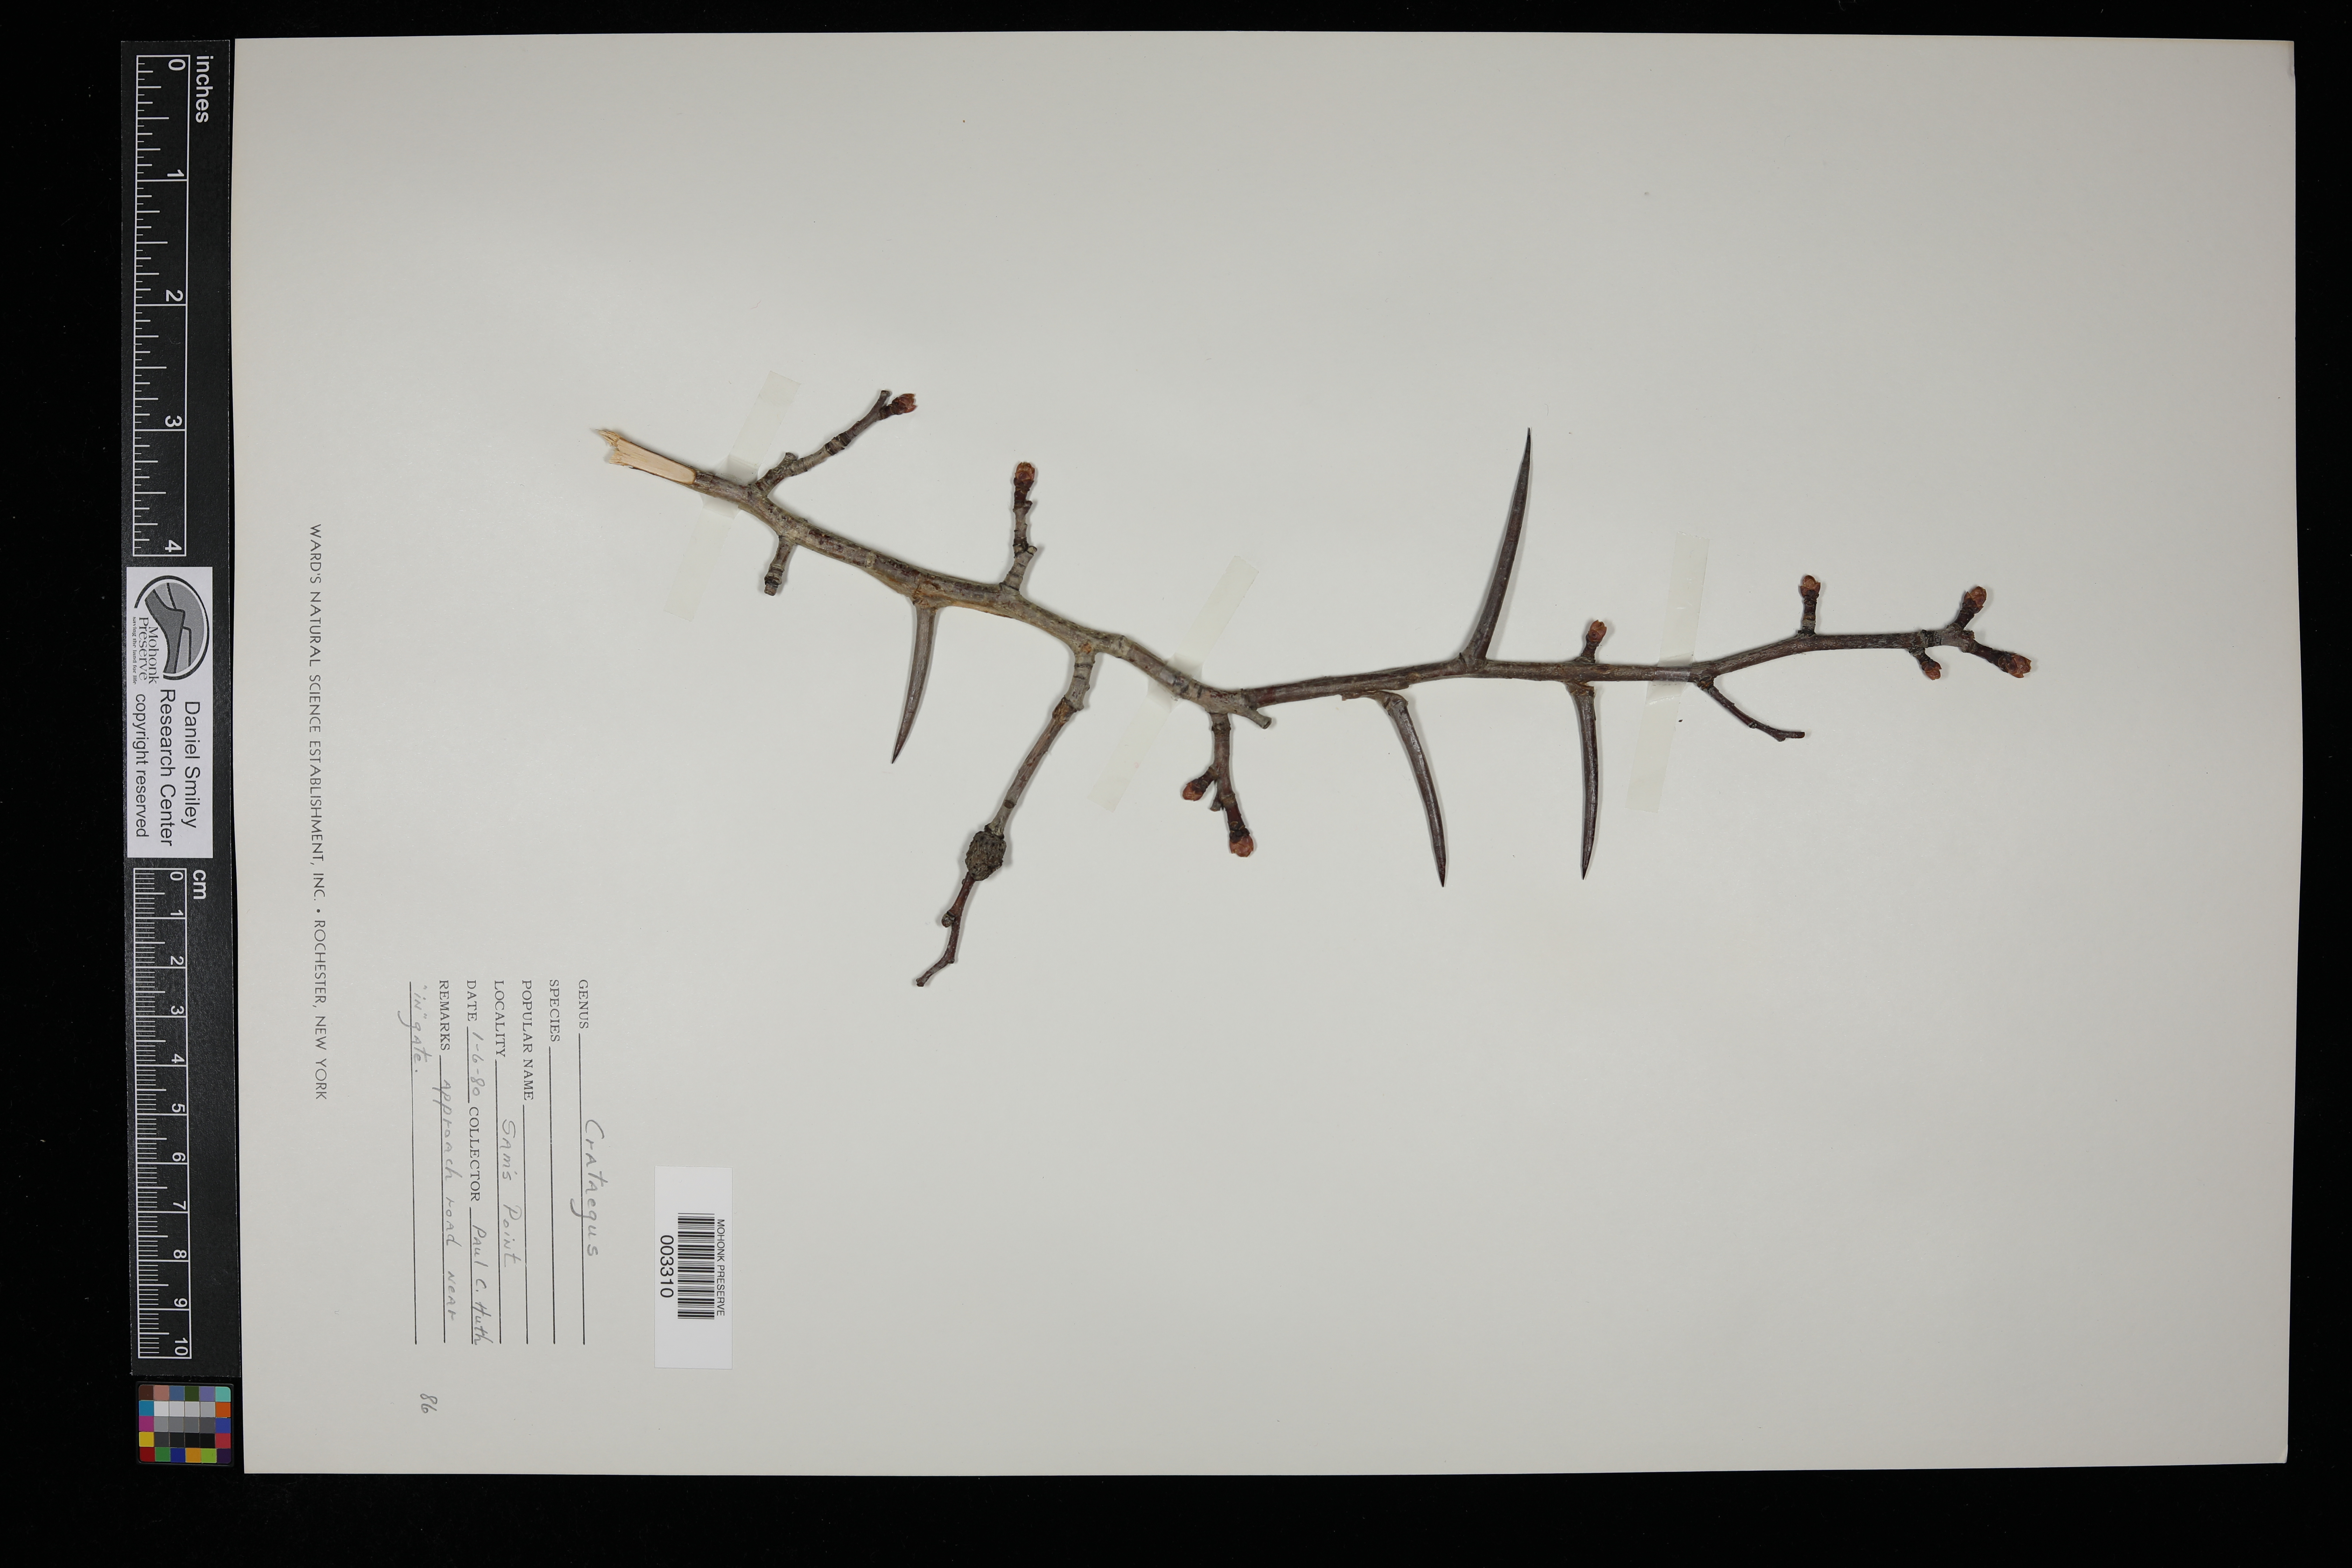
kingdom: Plantae
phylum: Tracheophyta
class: Magnoliopsida
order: Rosales
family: Rosaceae
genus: Crataegus
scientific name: Crataegus
